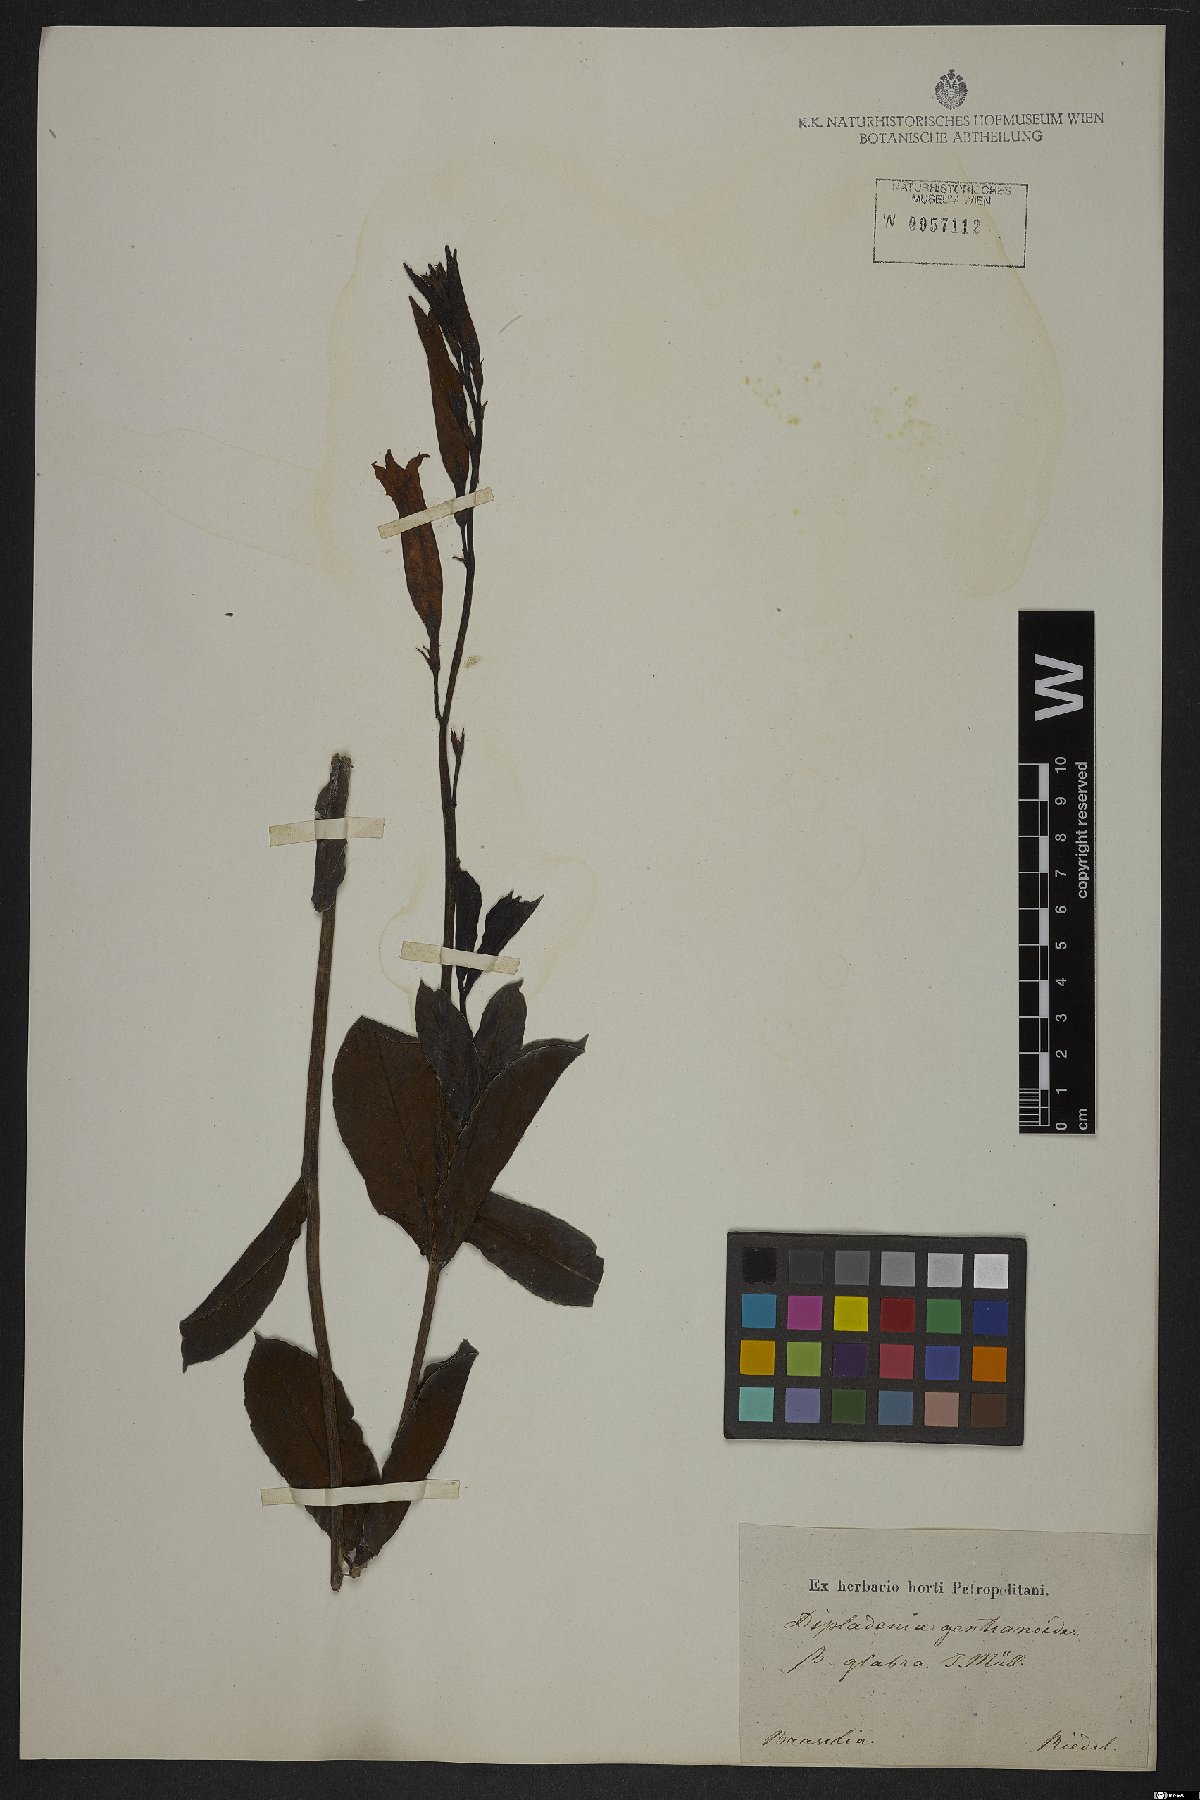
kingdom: Plantae
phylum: Tracheophyta
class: Magnoliopsida
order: Gentianales
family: Apocynaceae
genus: Mandevilla
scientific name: Mandevilla pohliana
